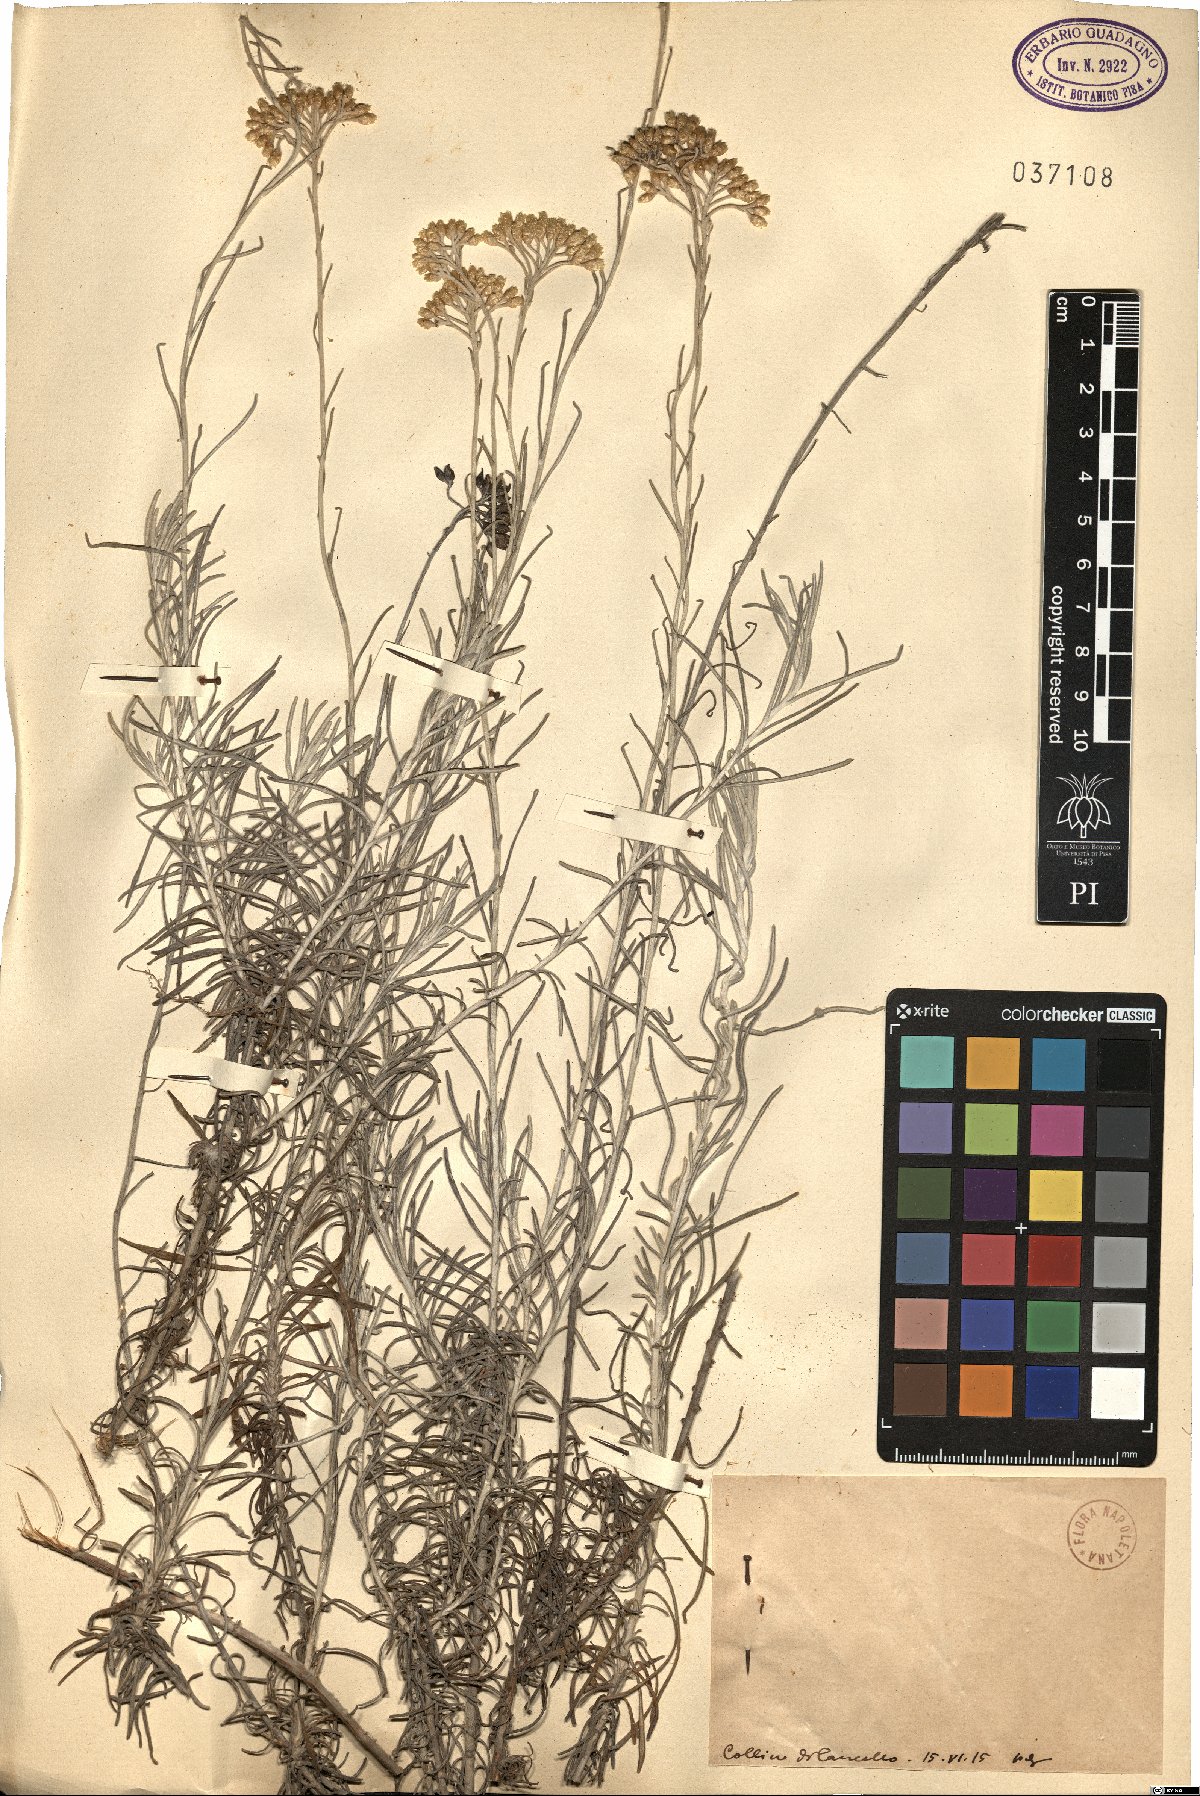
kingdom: Plantae
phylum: Tracheophyta
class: Magnoliopsida
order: Asterales
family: Asteraceae
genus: Helichrysum
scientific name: Helichrysum
